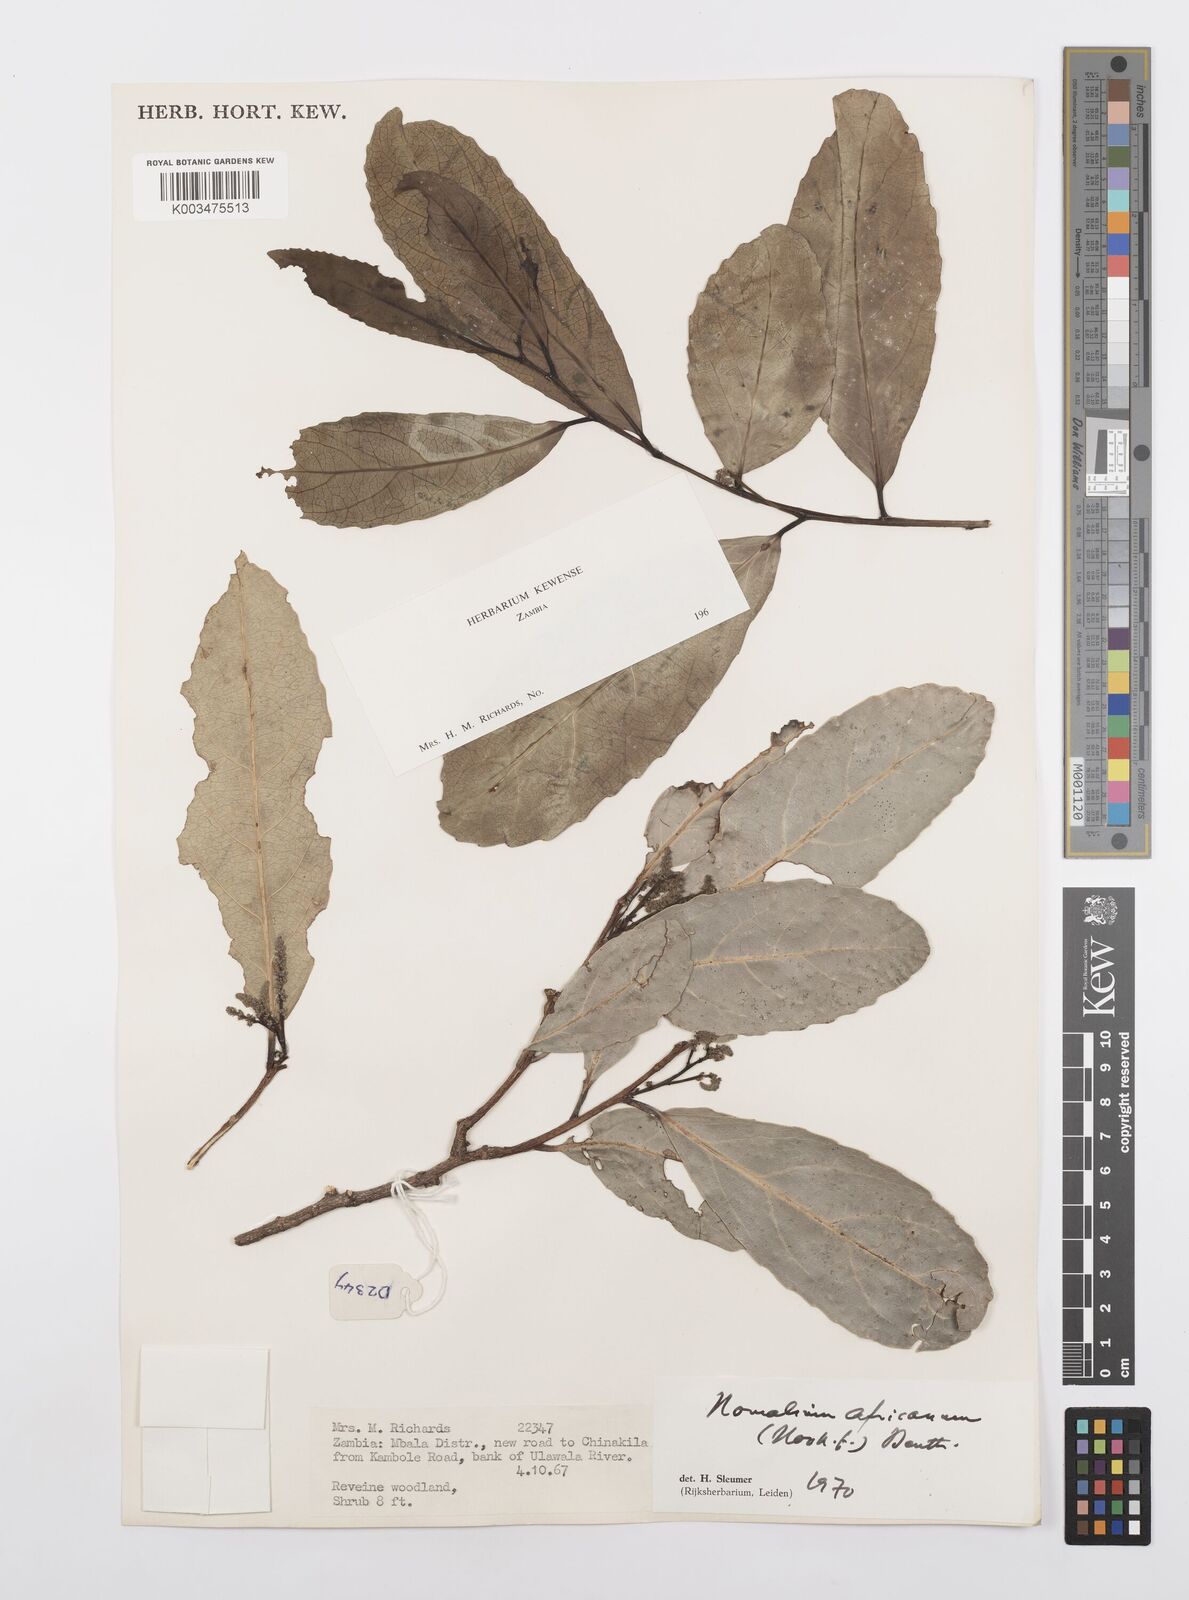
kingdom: Plantae
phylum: Tracheophyta
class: Magnoliopsida
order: Malpighiales
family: Salicaceae
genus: Homalium
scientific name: Homalium africanum
